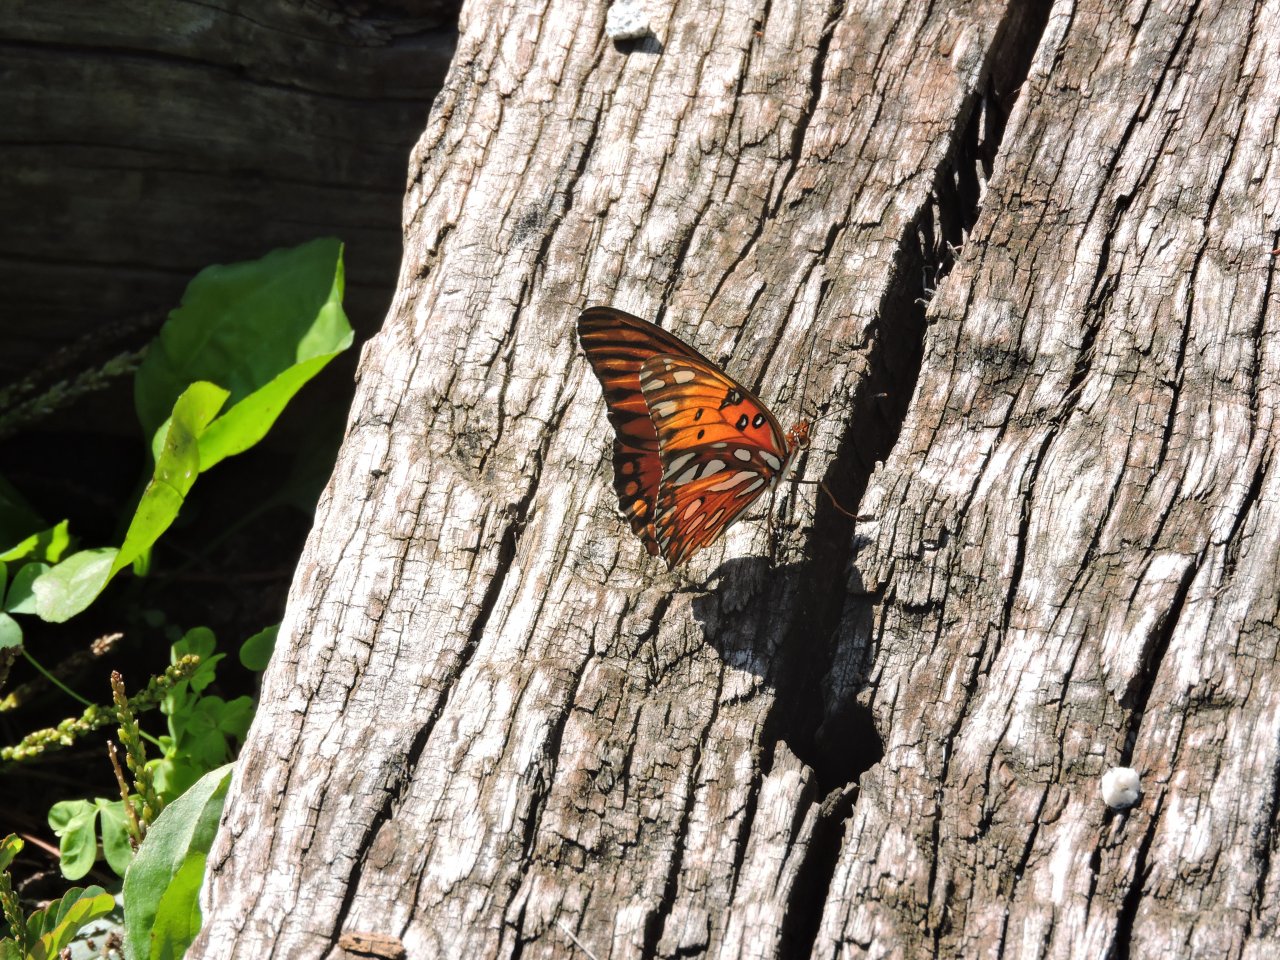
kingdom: Animalia
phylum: Arthropoda
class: Insecta
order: Lepidoptera
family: Nymphalidae
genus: Dione
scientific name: Dione vanillae
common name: Gulf Fritillary
